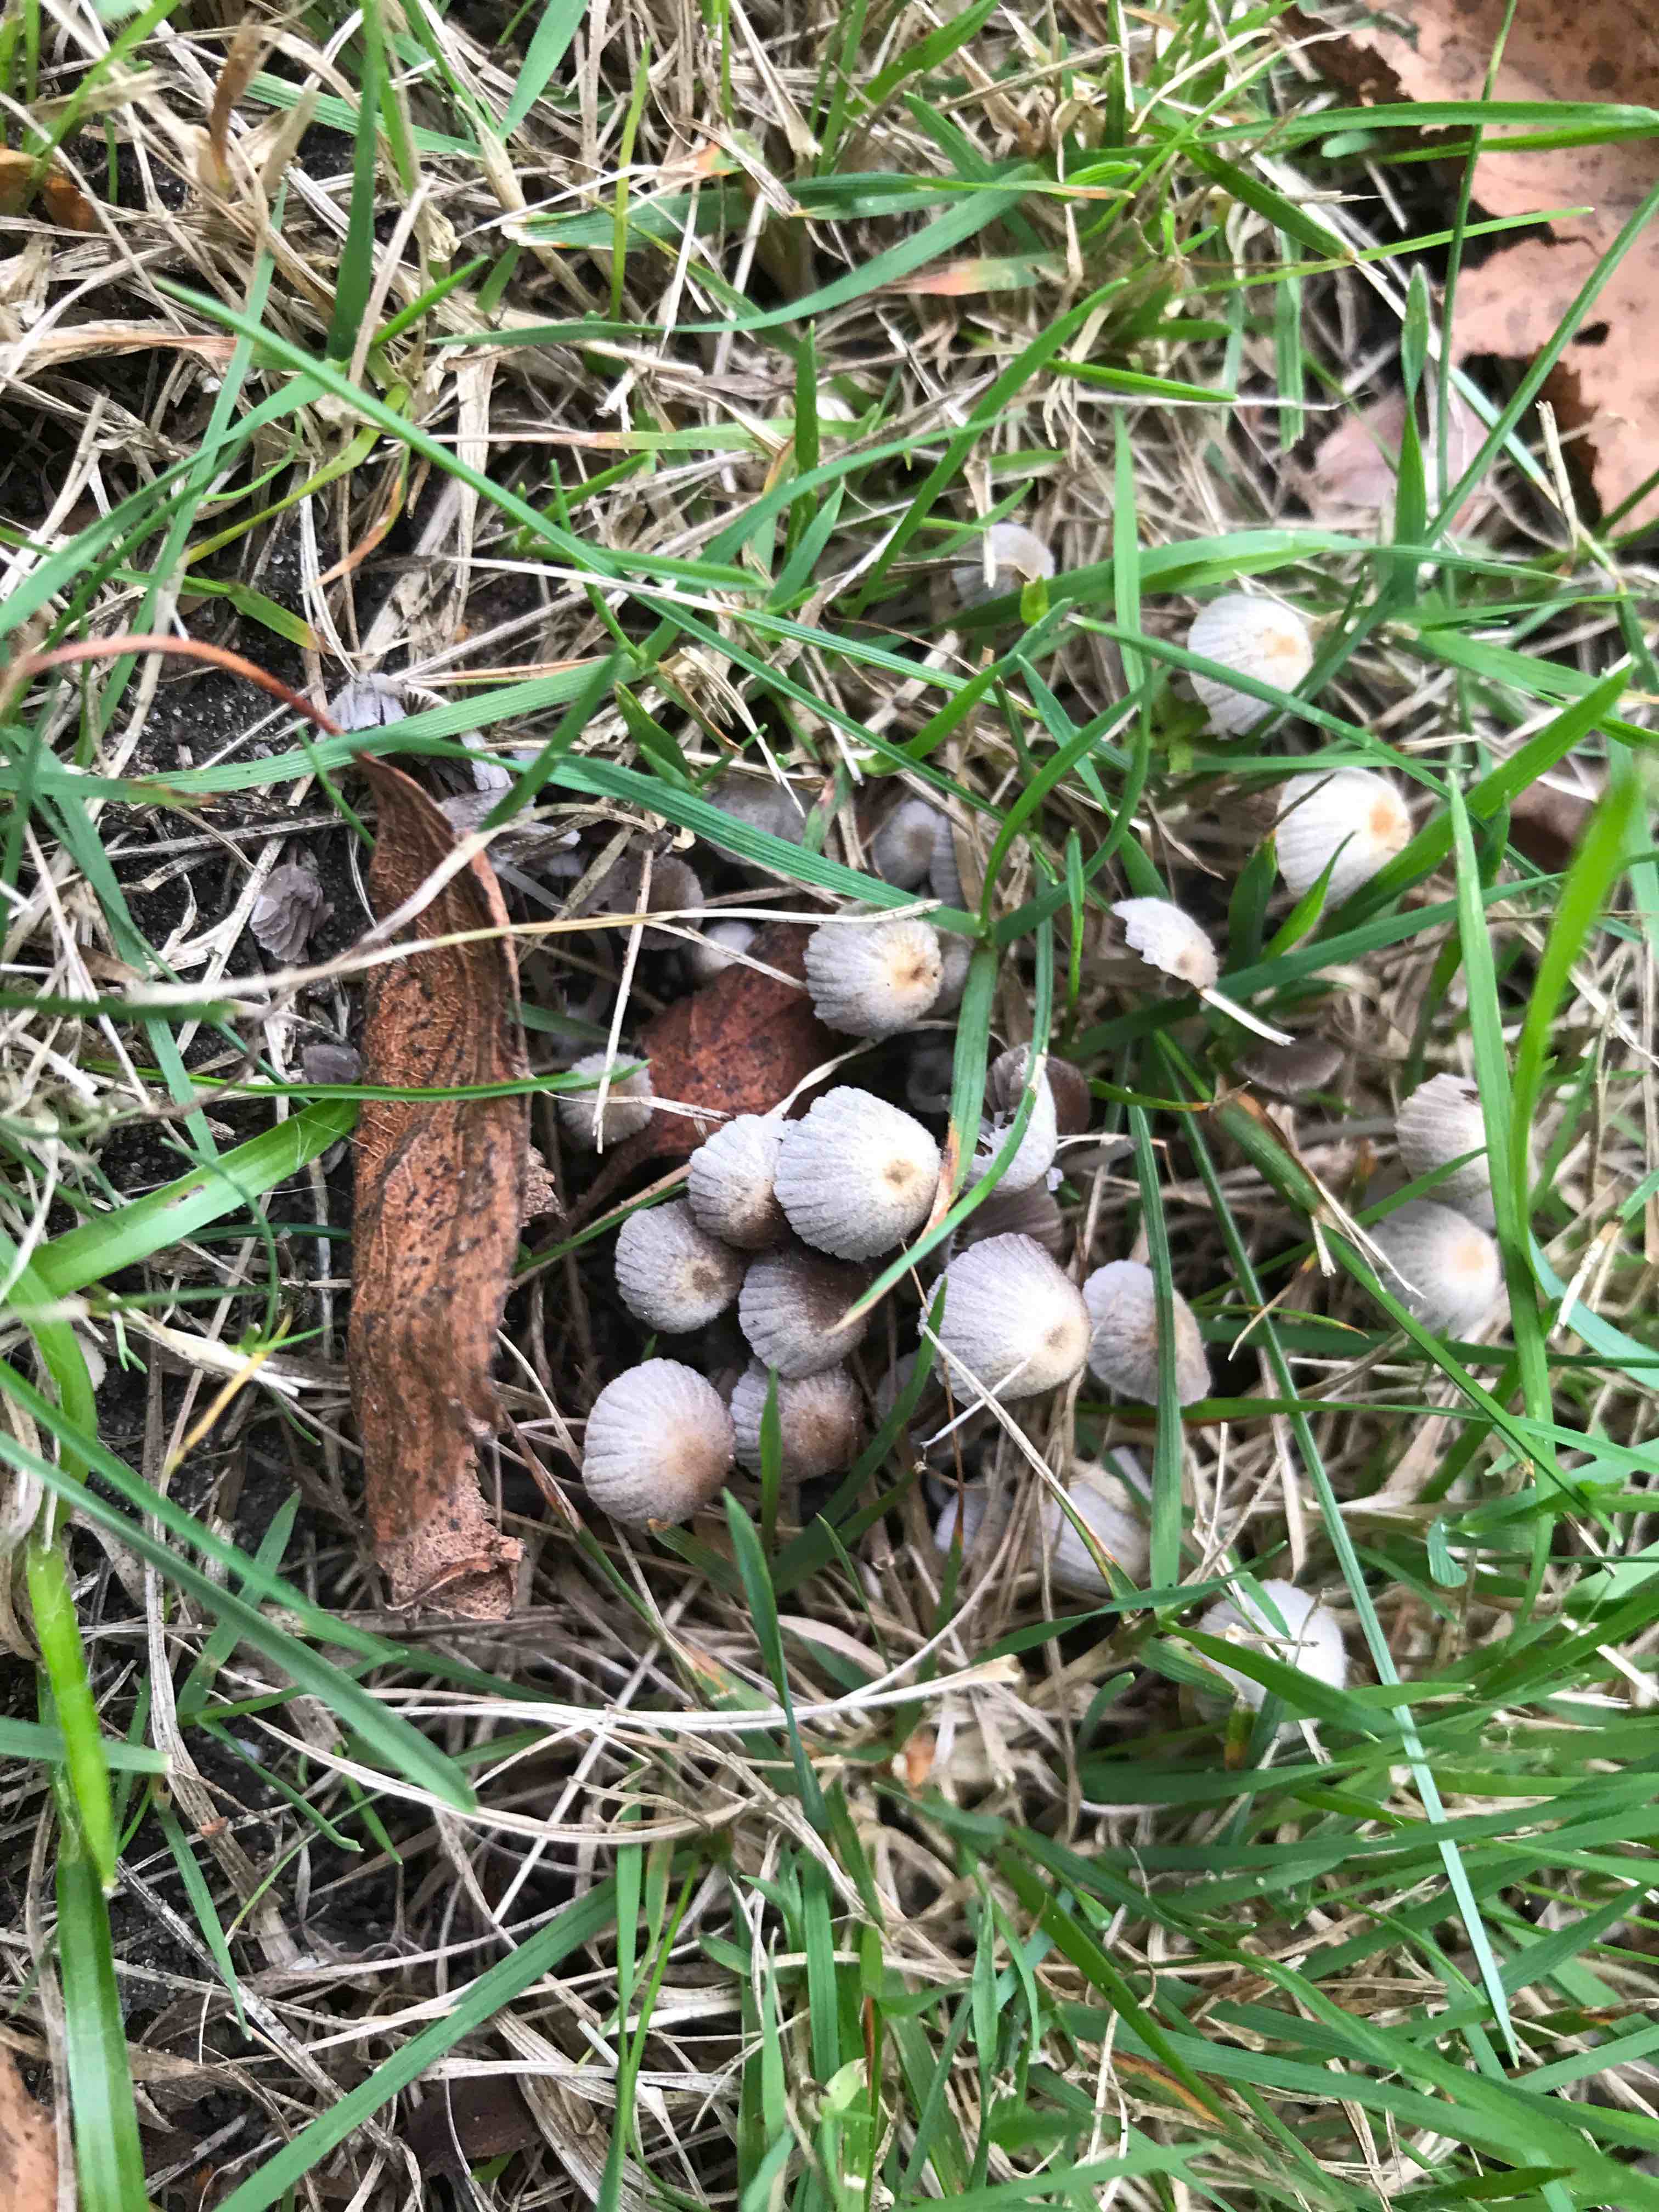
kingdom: Fungi
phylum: Basidiomycota
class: Agaricomycetes
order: Agaricales
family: Psathyrellaceae
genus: Coprinellus
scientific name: Coprinellus disseminatus
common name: bredsået blækhat
